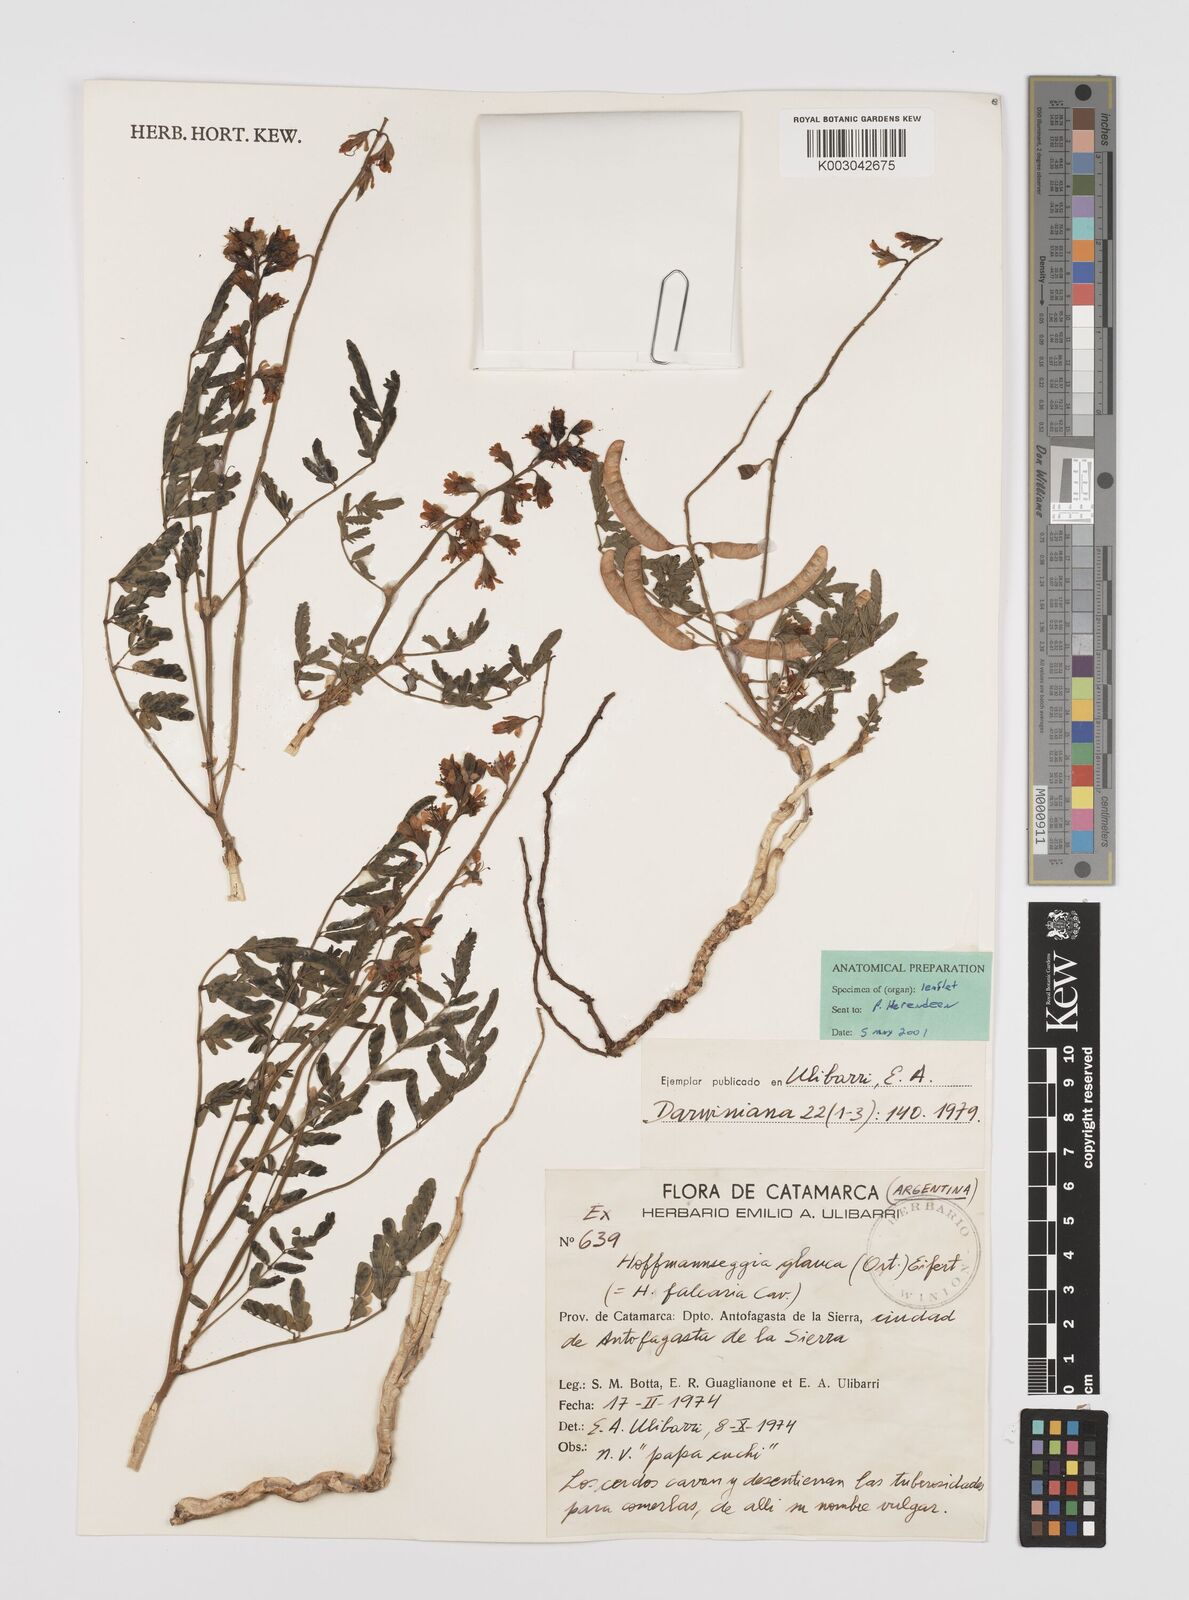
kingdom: Plantae
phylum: Tracheophyta
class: Magnoliopsida
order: Fabales
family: Fabaceae
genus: Hoffmannseggia
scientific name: Hoffmannseggia glauca
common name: Pignut
